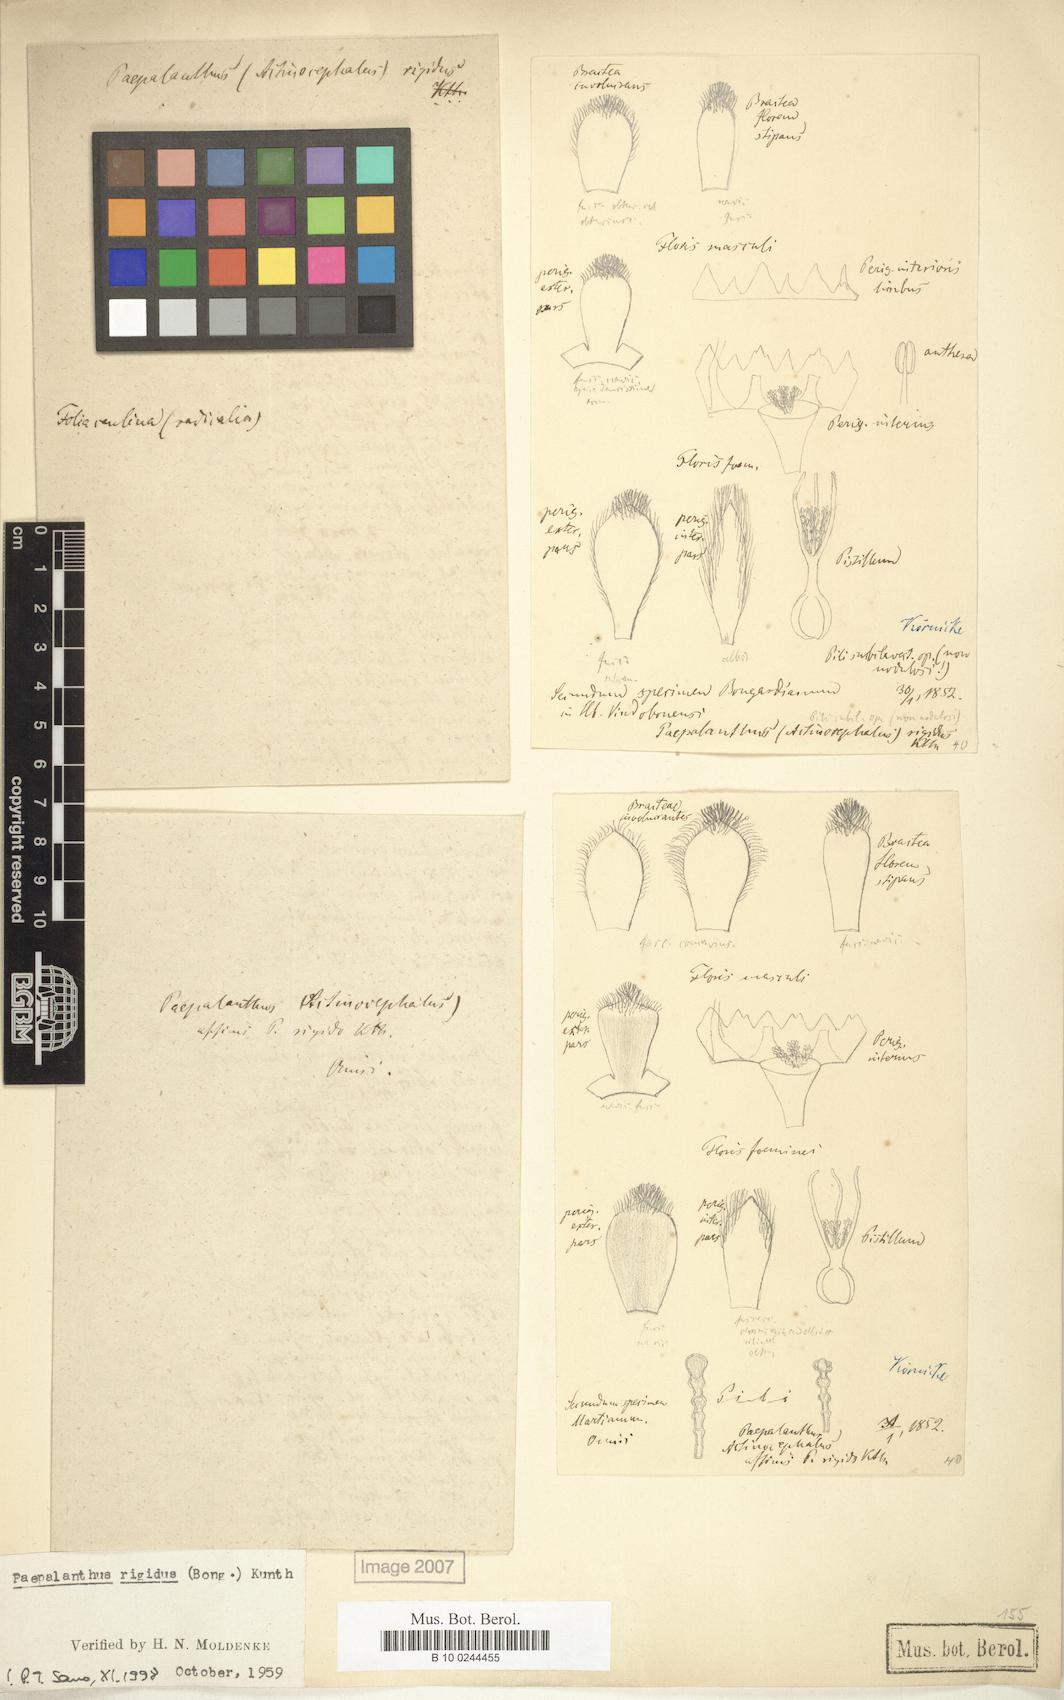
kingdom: Plantae
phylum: Tracheophyta
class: Liliopsida
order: Poales
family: Eriocaulaceae
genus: Paepalanthus
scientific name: Paepalanthus rigidus
